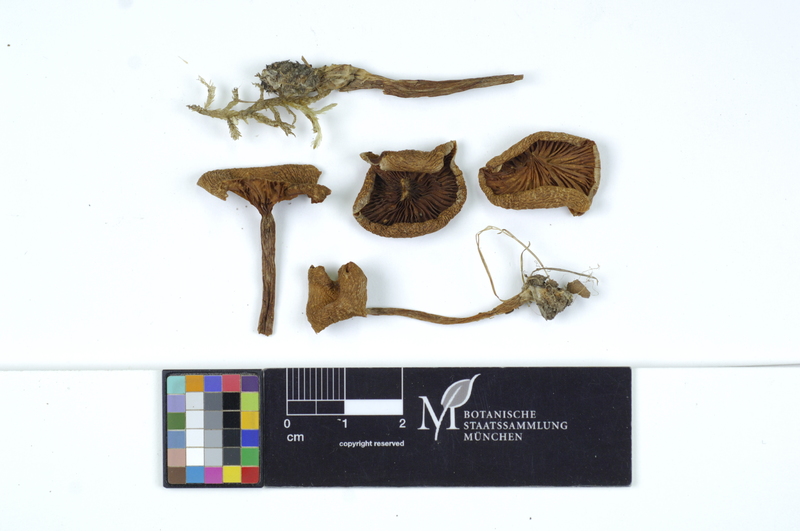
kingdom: Fungi
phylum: Basidiomycota
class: Agaricomycetes
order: Agaricales
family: Tricholomataceae
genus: Clitocybe
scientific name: Clitocybe fragrans
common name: Fragrant funnel
